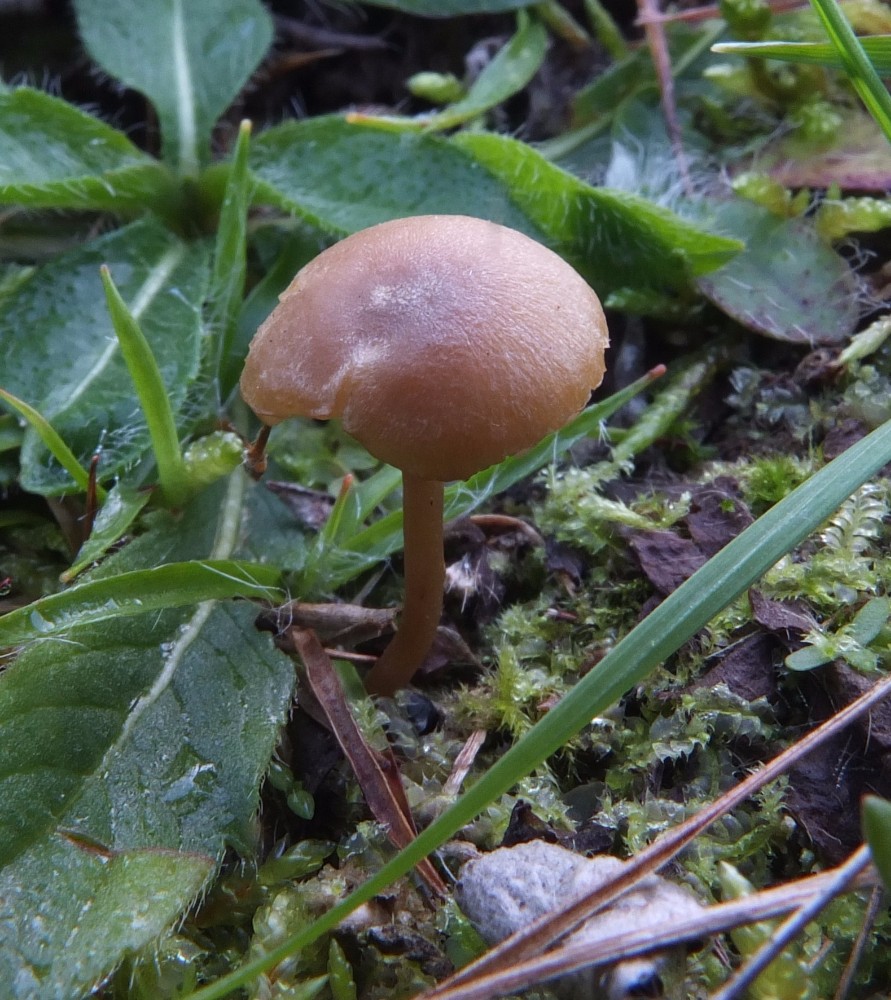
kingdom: Fungi
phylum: Basidiomycota
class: Agaricomycetes
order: Agaricales
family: Tricholomataceae
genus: Omphalina
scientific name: Omphalina subhepatica
